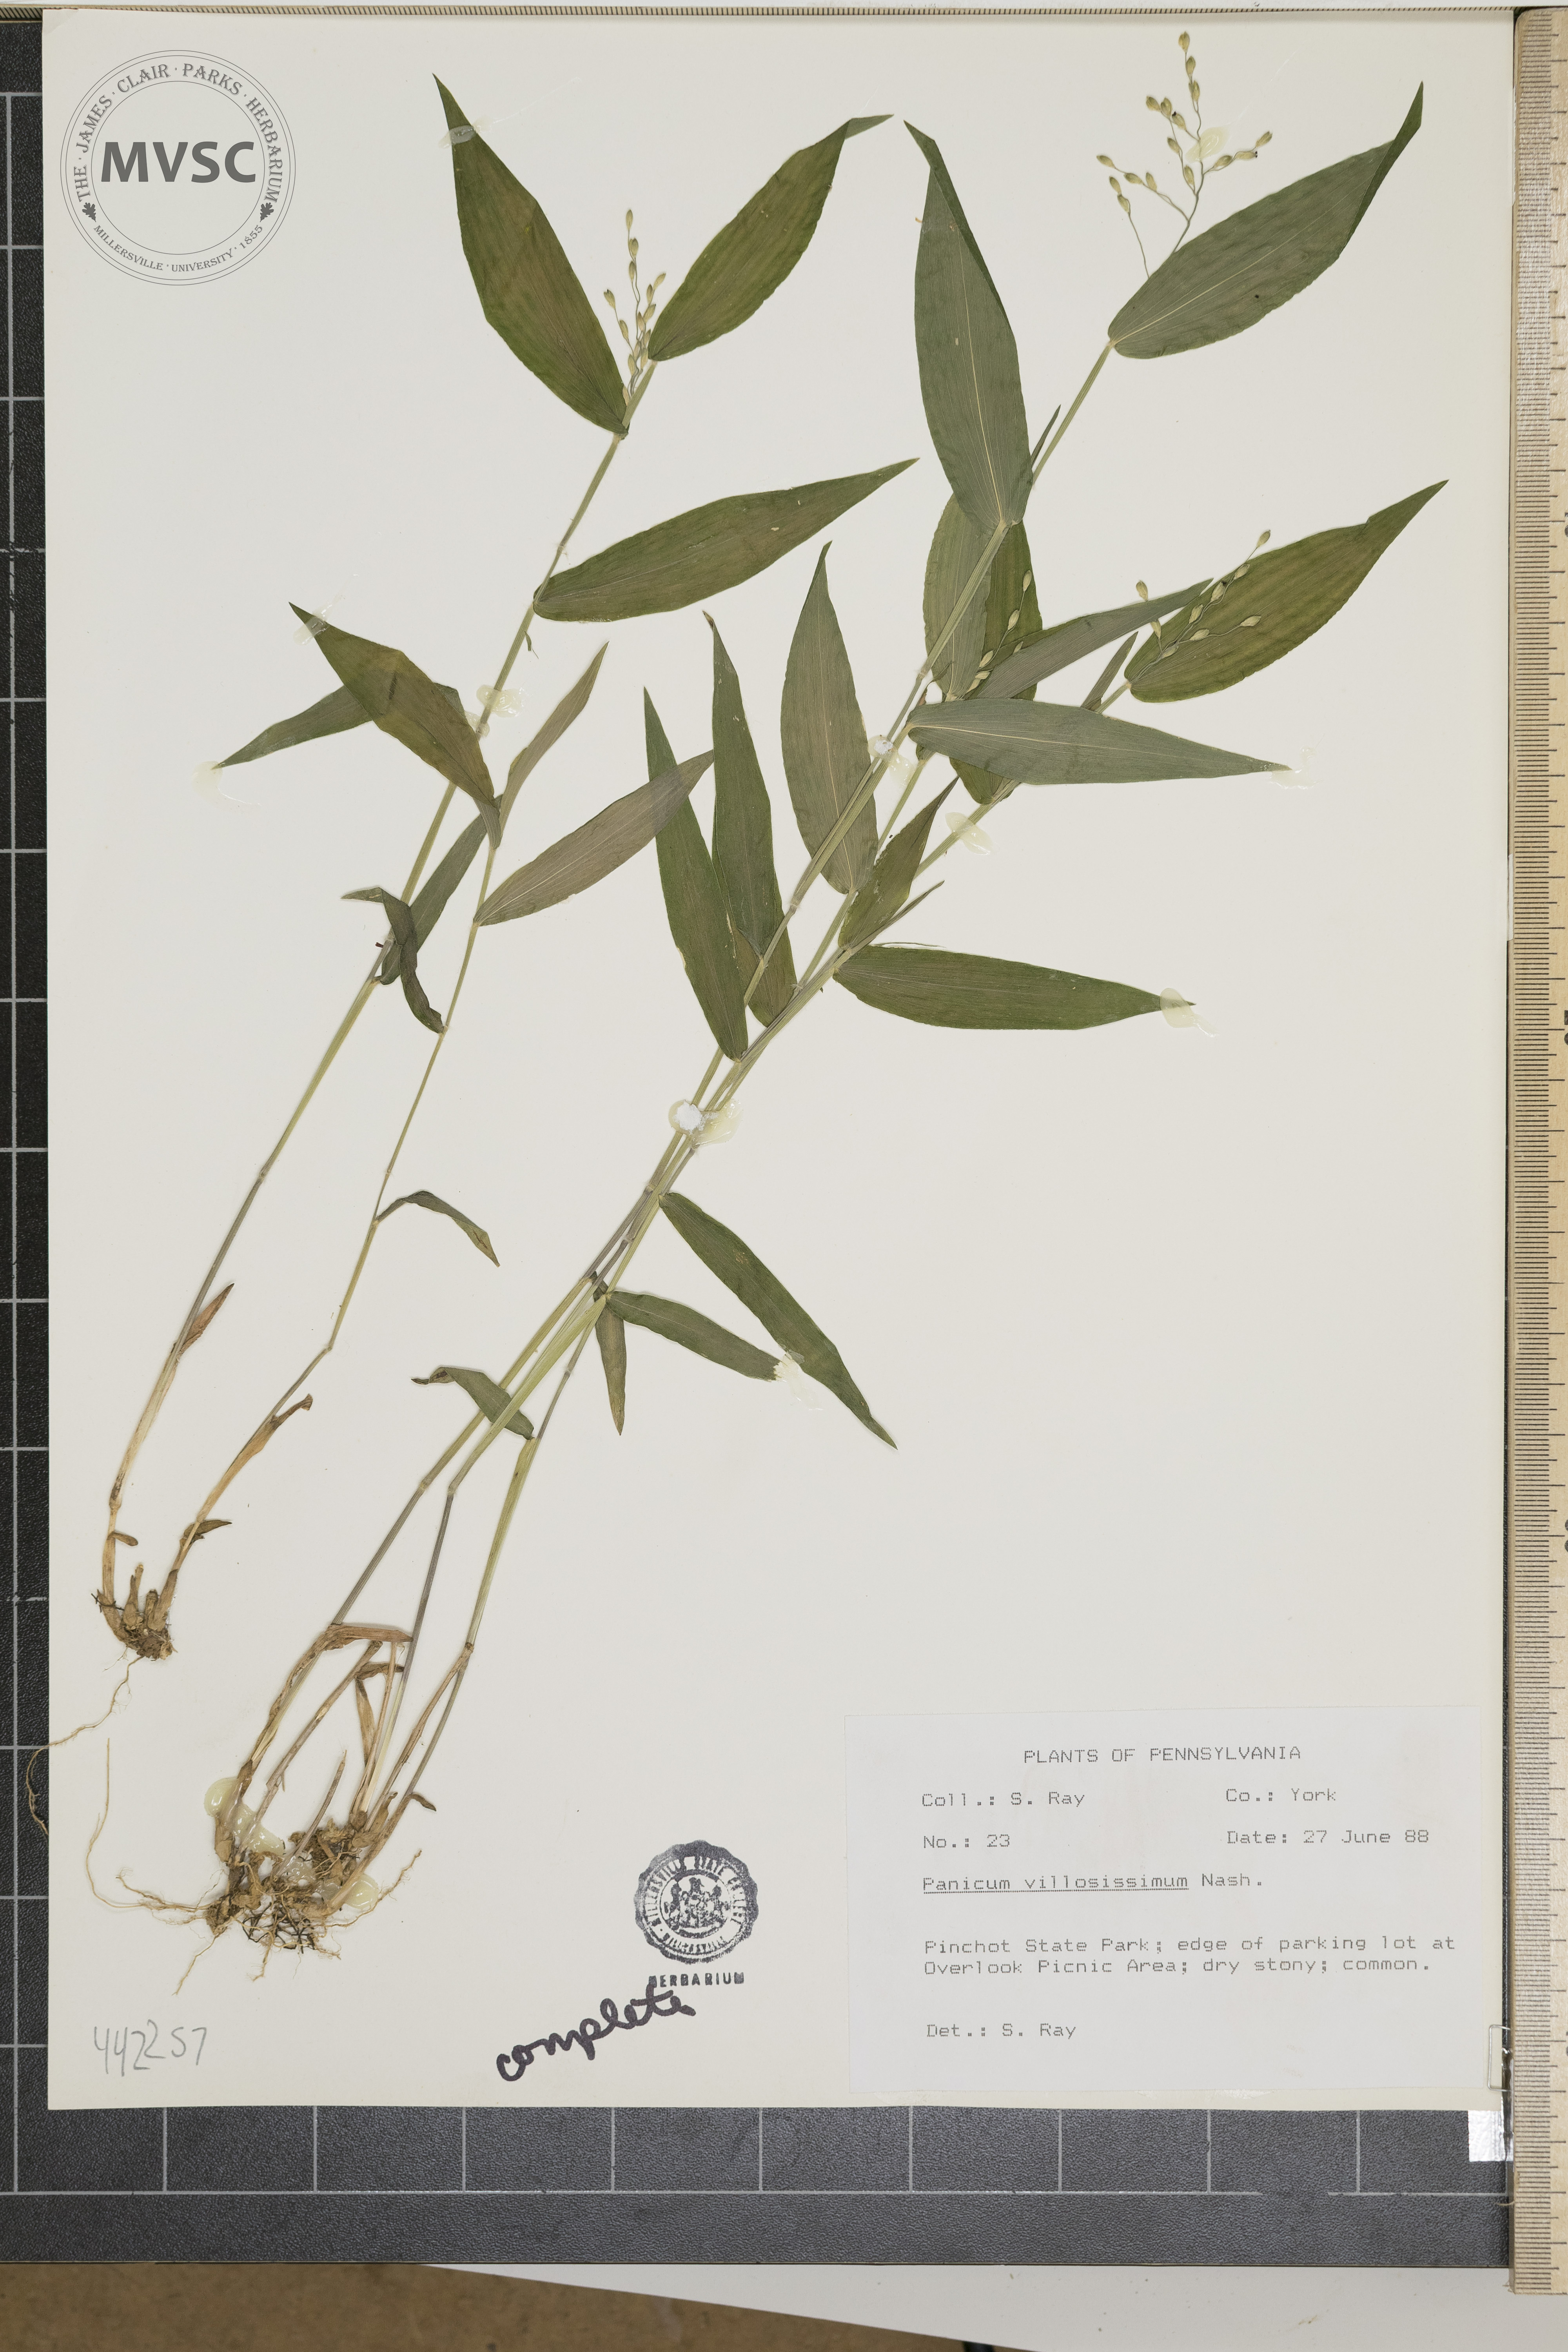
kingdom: Plantae
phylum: Tracheophyta
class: Liliopsida
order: Poales
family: Poaceae
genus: Dichanthelium
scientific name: Dichanthelium villosissimum
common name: White-haired panicgrass
